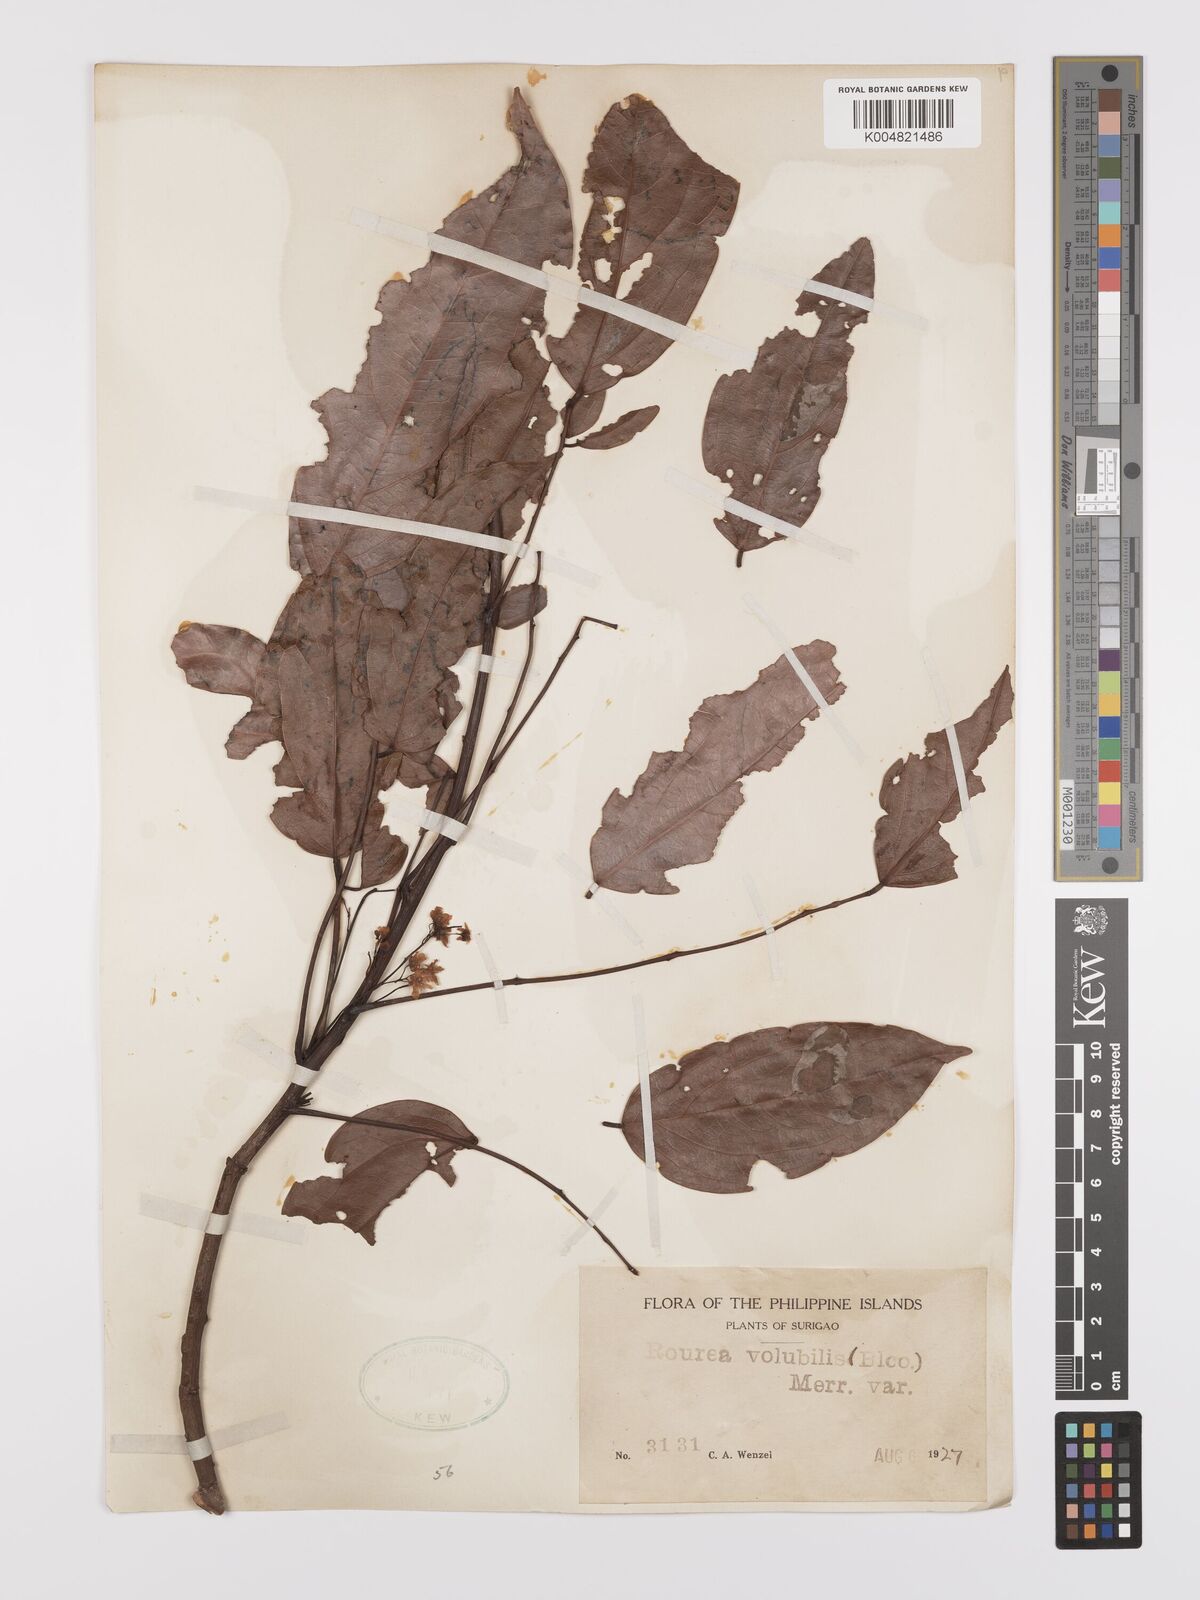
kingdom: Plantae
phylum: Tracheophyta
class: Magnoliopsida
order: Oxalidales
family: Connaraceae
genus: Rourea
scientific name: Rourea minor
